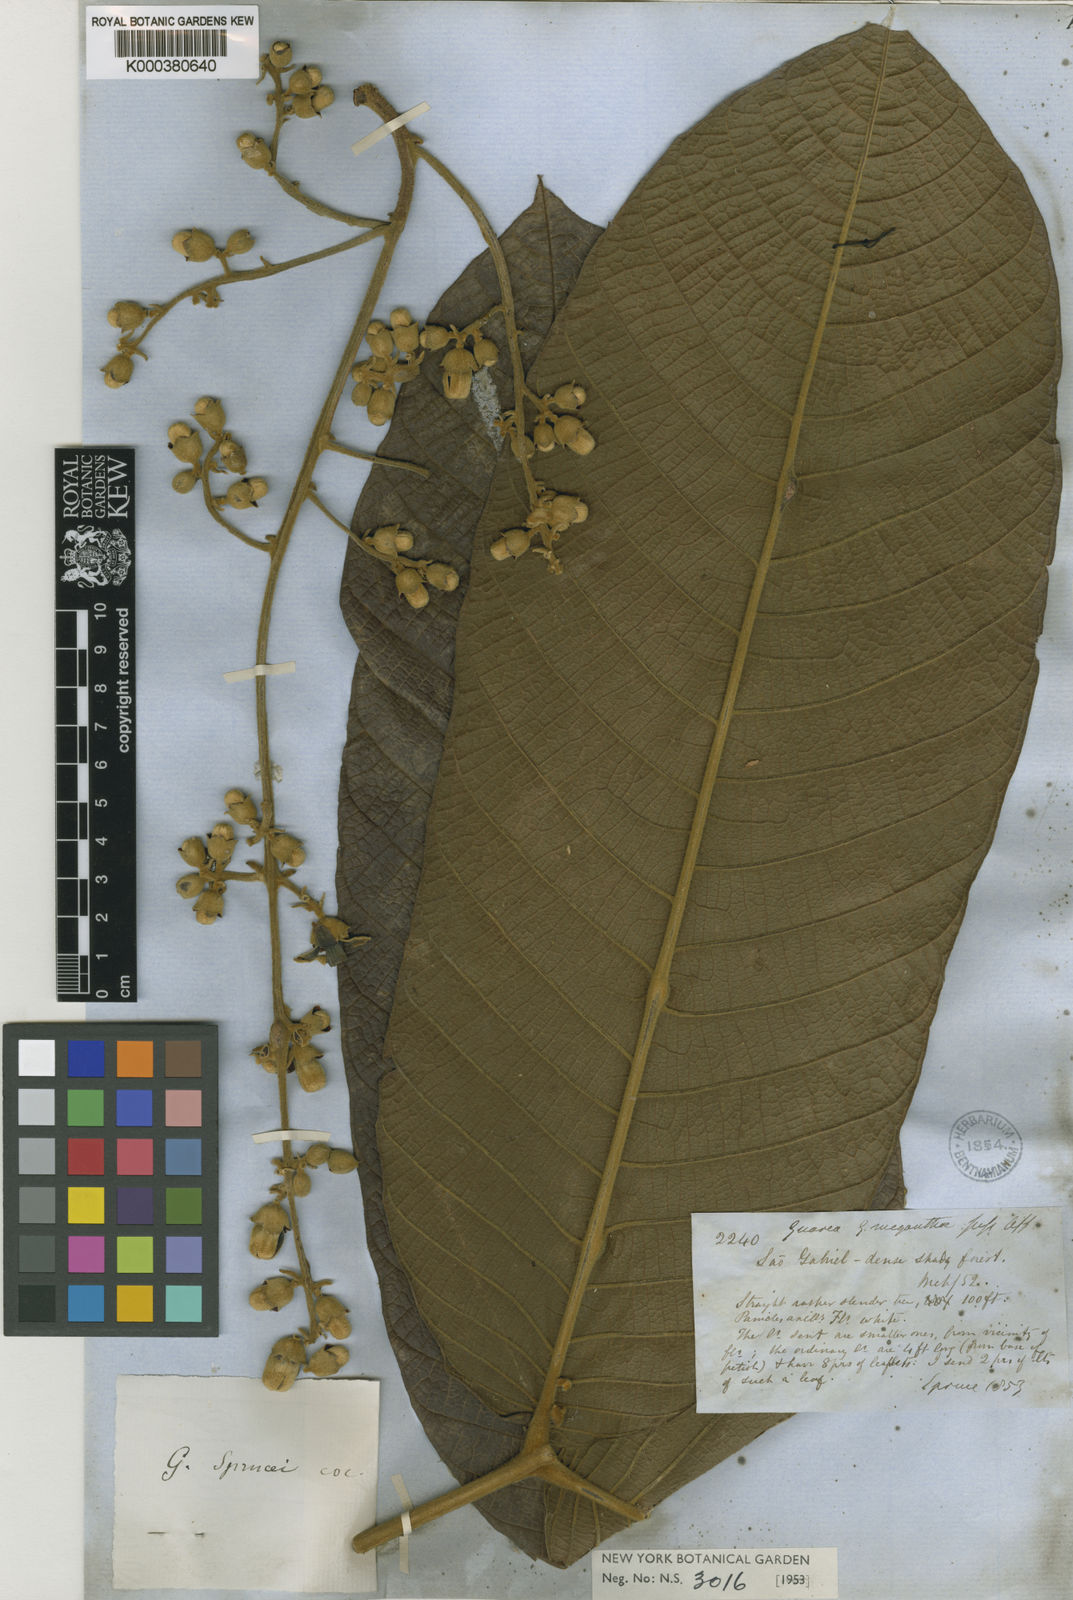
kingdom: Plantae
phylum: Tracheophyta
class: Magnoliopsida
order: Sapindales
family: Meliaceae
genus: Guarea
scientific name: Guarea sprucei
